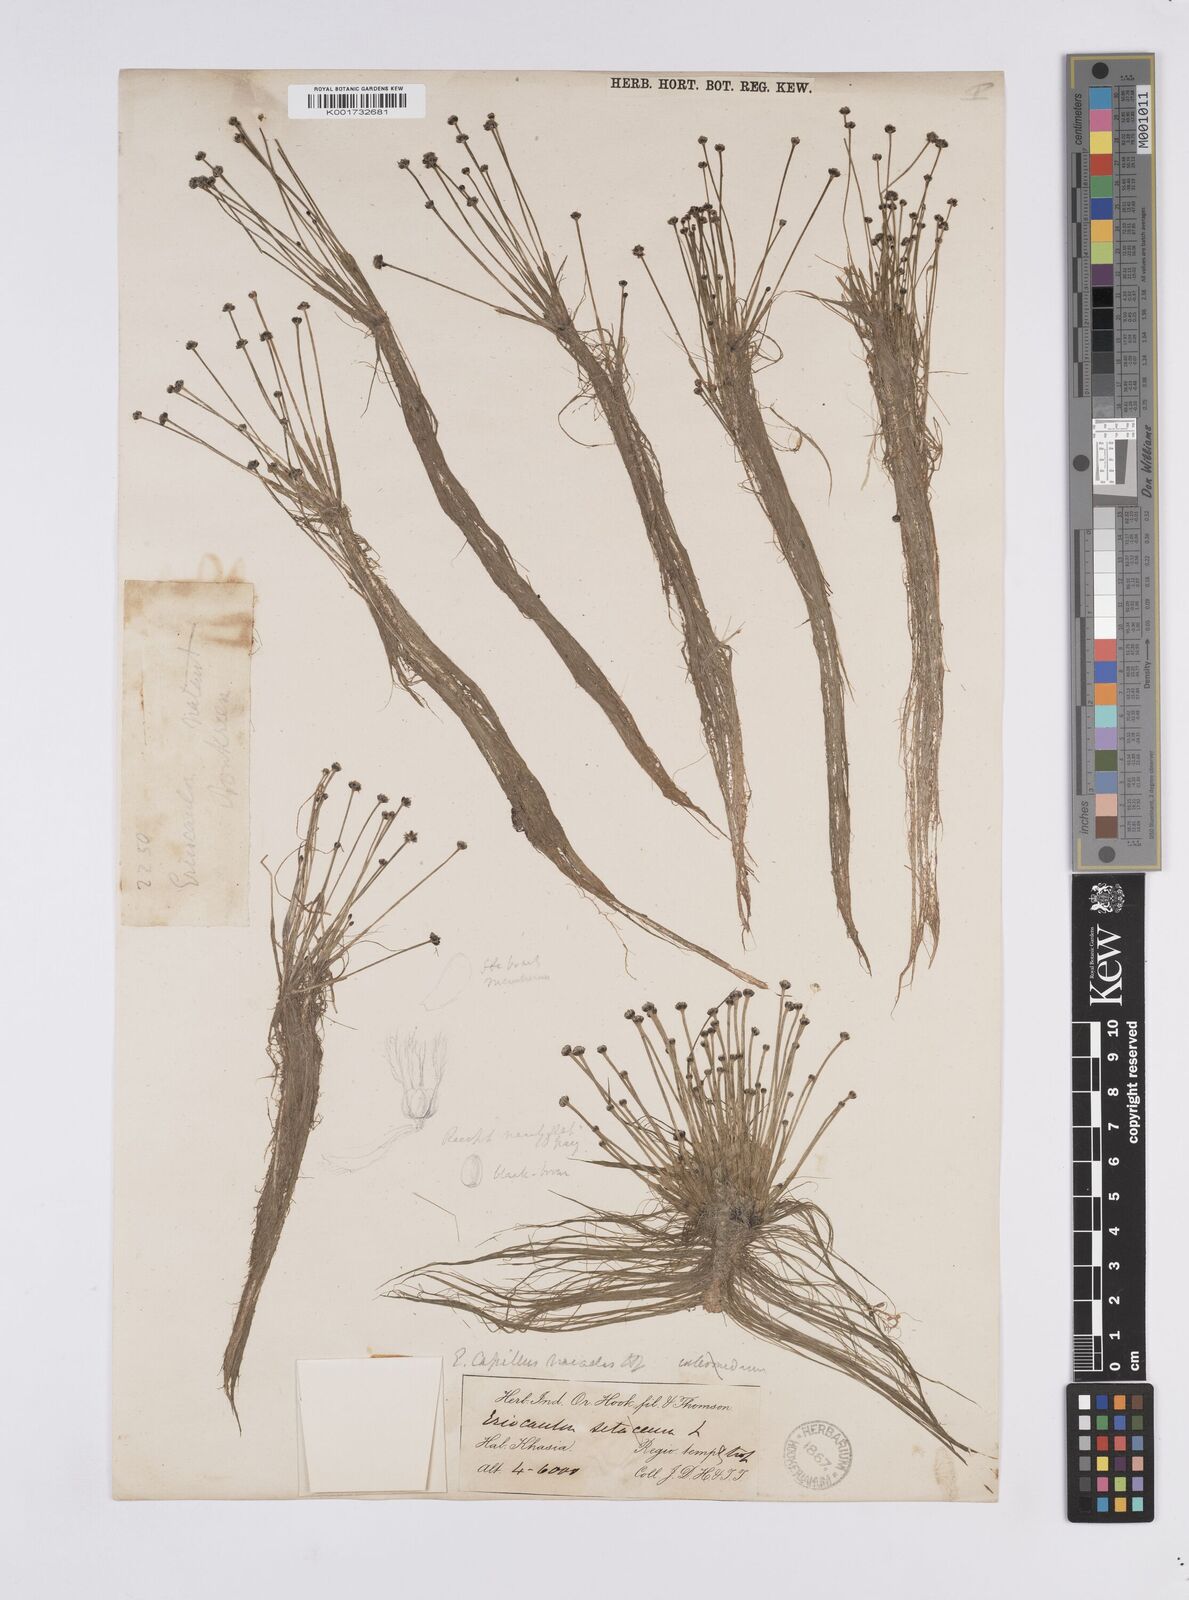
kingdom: Plantae
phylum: Tracheophyta
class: Liliopsida
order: Poales
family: Eriocaulaceae
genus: Eriocaulon
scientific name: Eriocaulon setaceum
